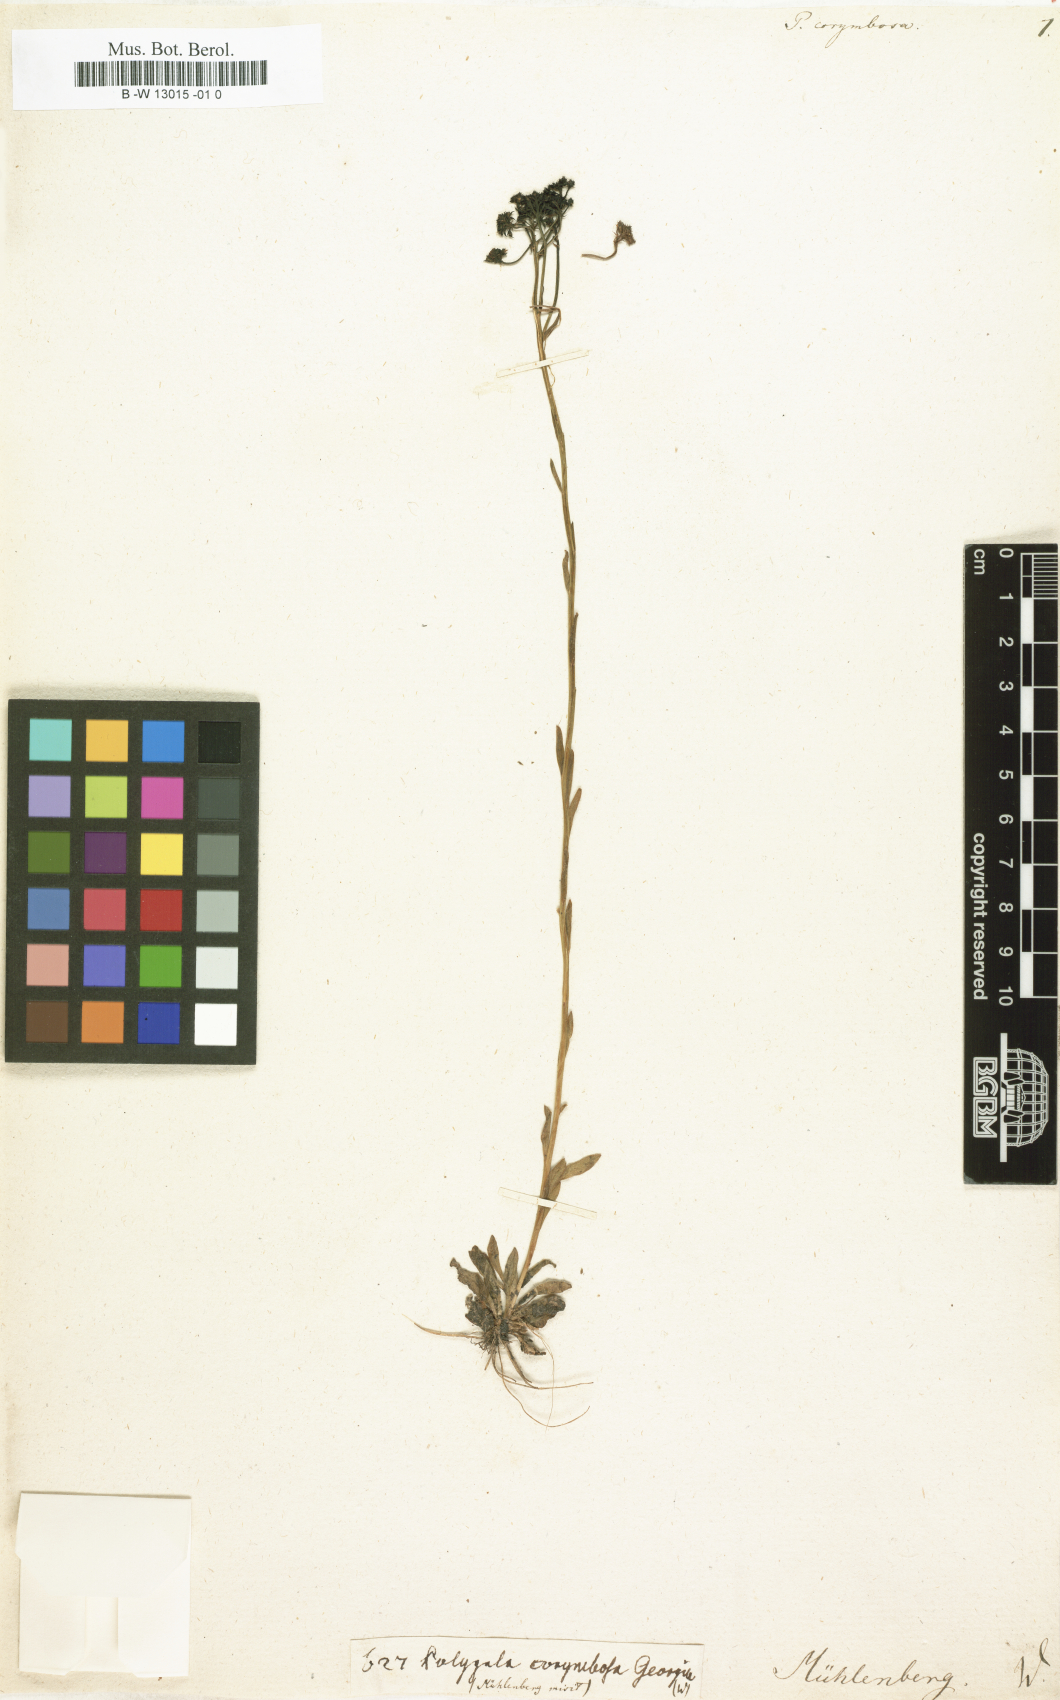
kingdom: Plantae
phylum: Tracheophyta
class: Magnoliopsida
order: Fabales
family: Polygalaceae
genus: Polygala
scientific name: Polygala
